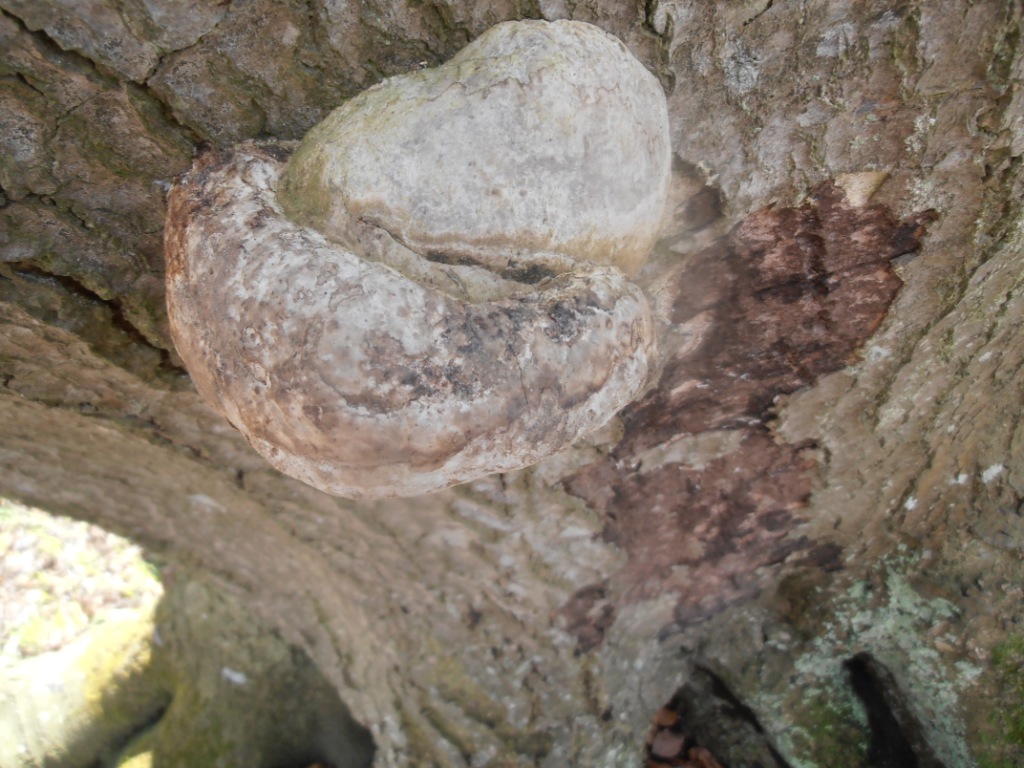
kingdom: Fungi
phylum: Basidiomycota
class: Agaricomycetes
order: Polyporales
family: Polyporaceae
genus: Fomes
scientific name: Fomes fomentarius
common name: tøndersvamp
